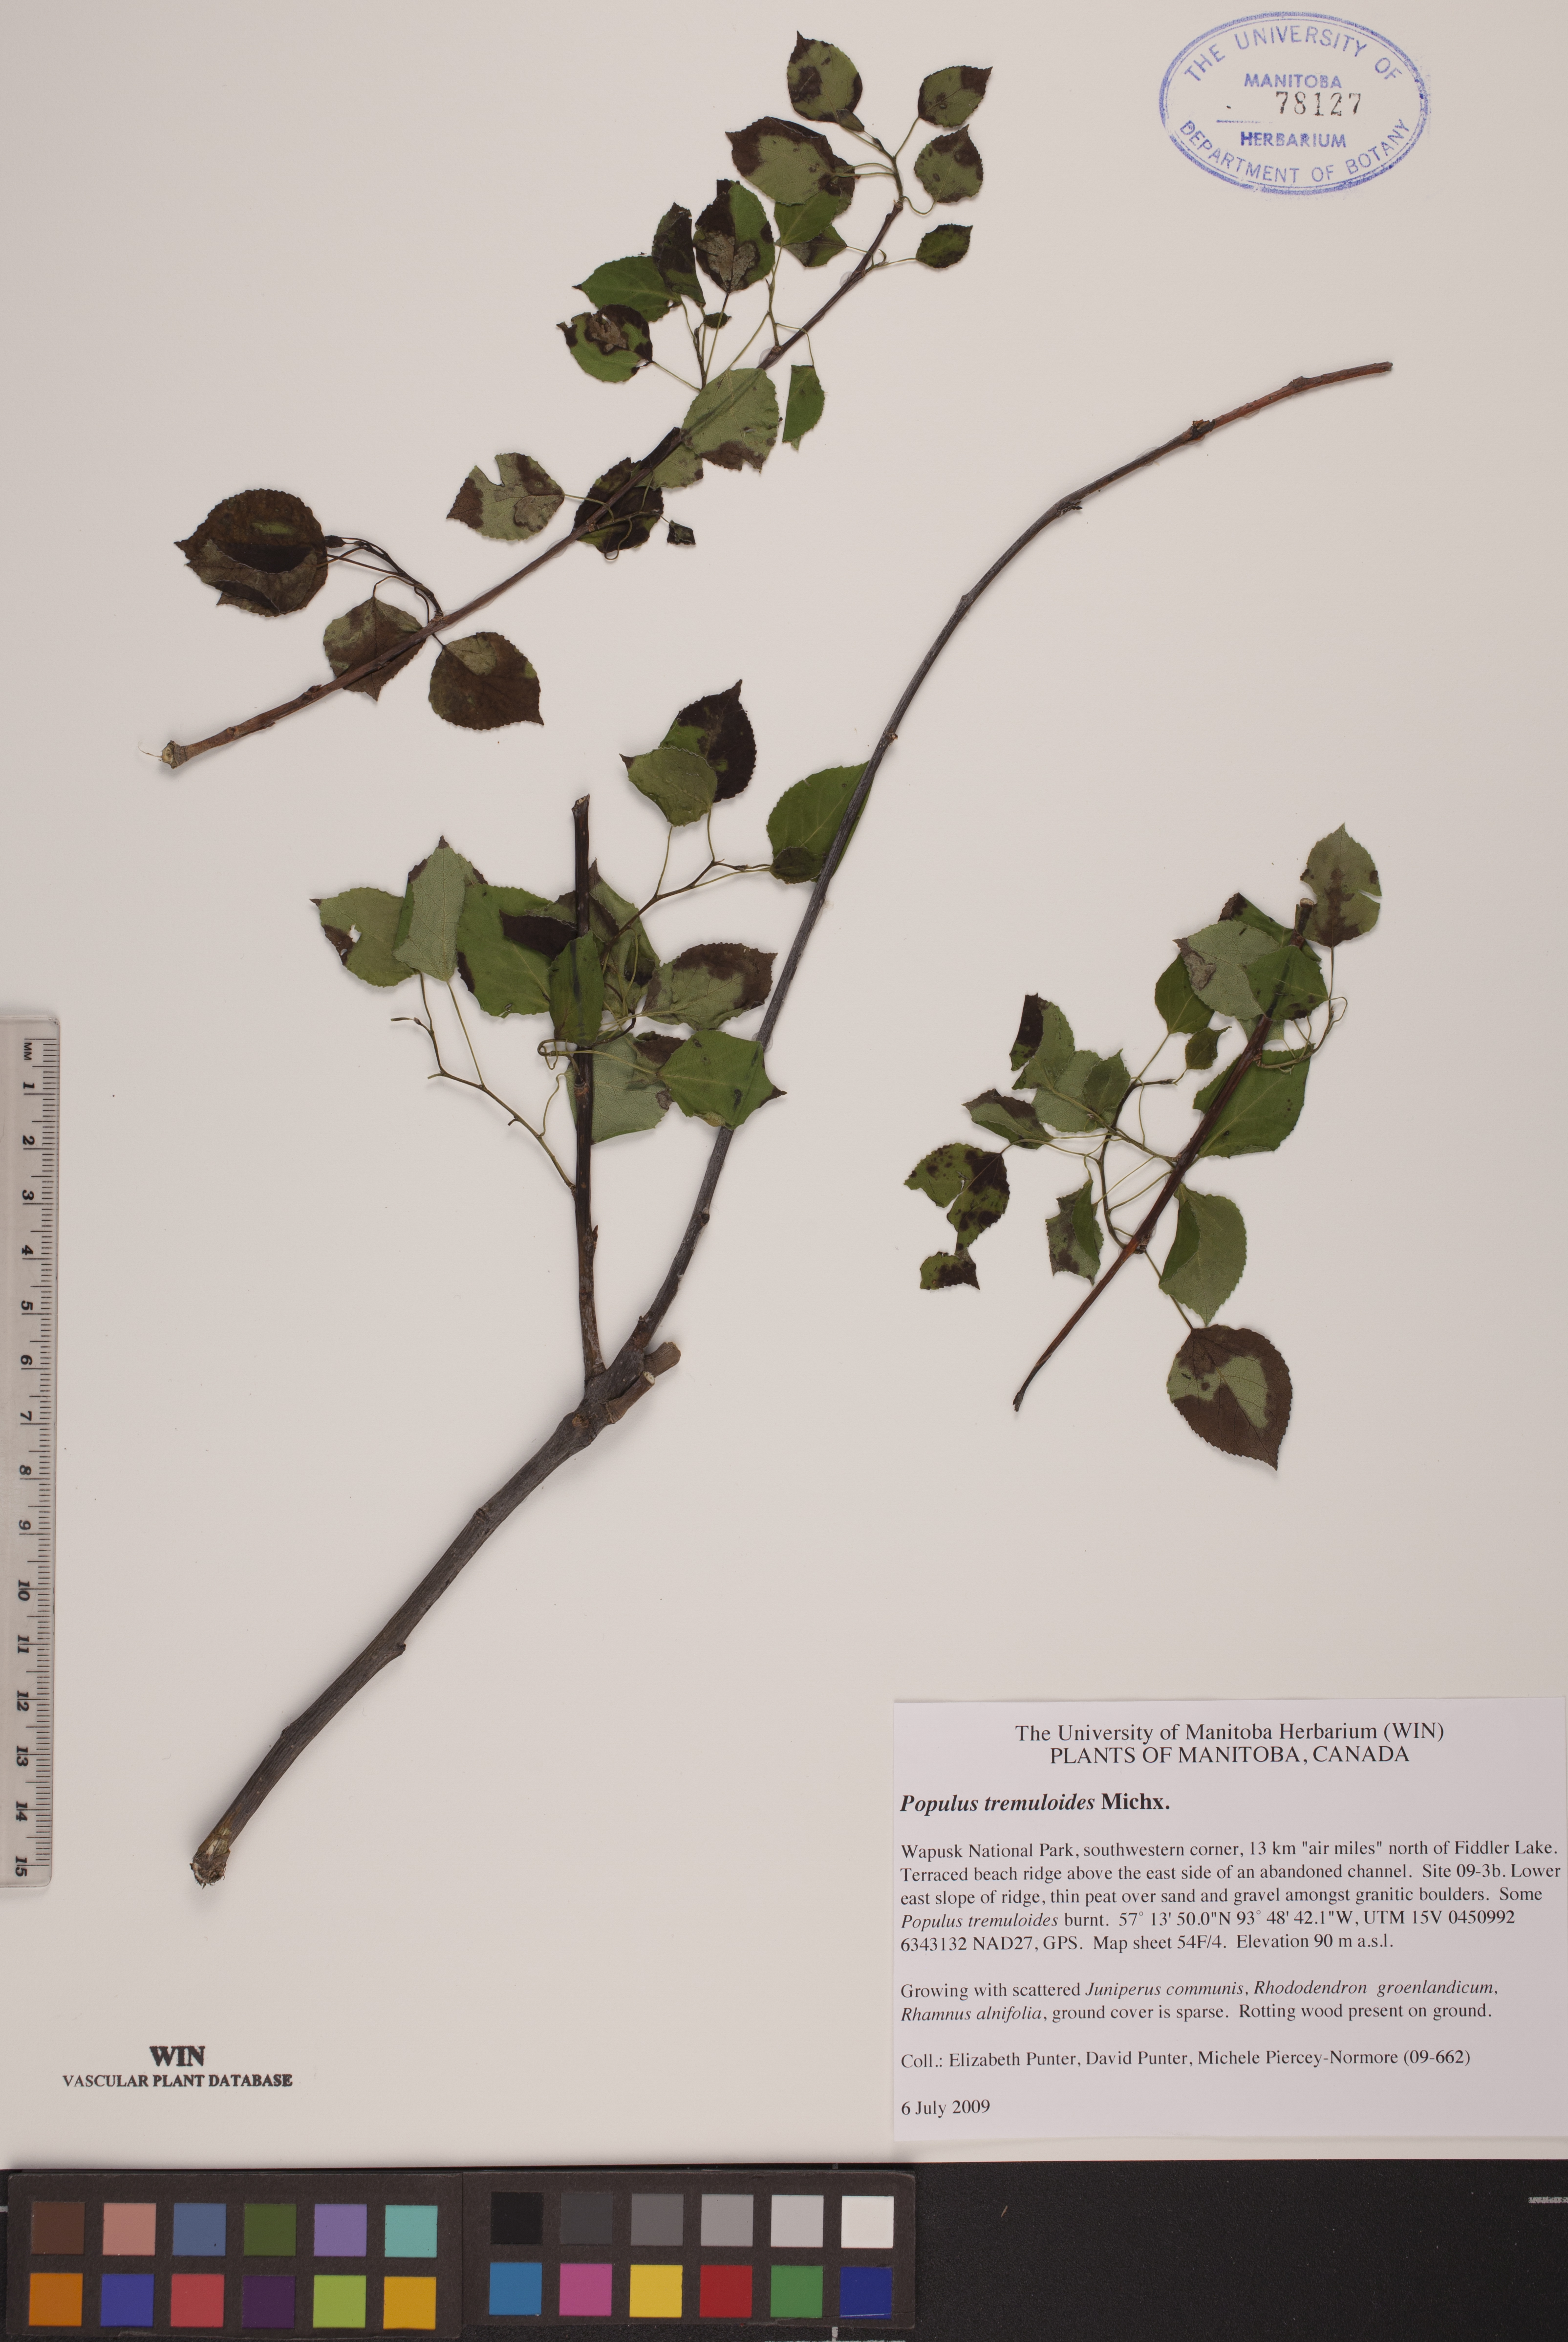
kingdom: Plantae
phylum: Tracheophyta
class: Magnoliopsida
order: Malpighiales
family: Salicaceae
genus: Populus
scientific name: Populus tremuloides
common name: Quaking aspen
